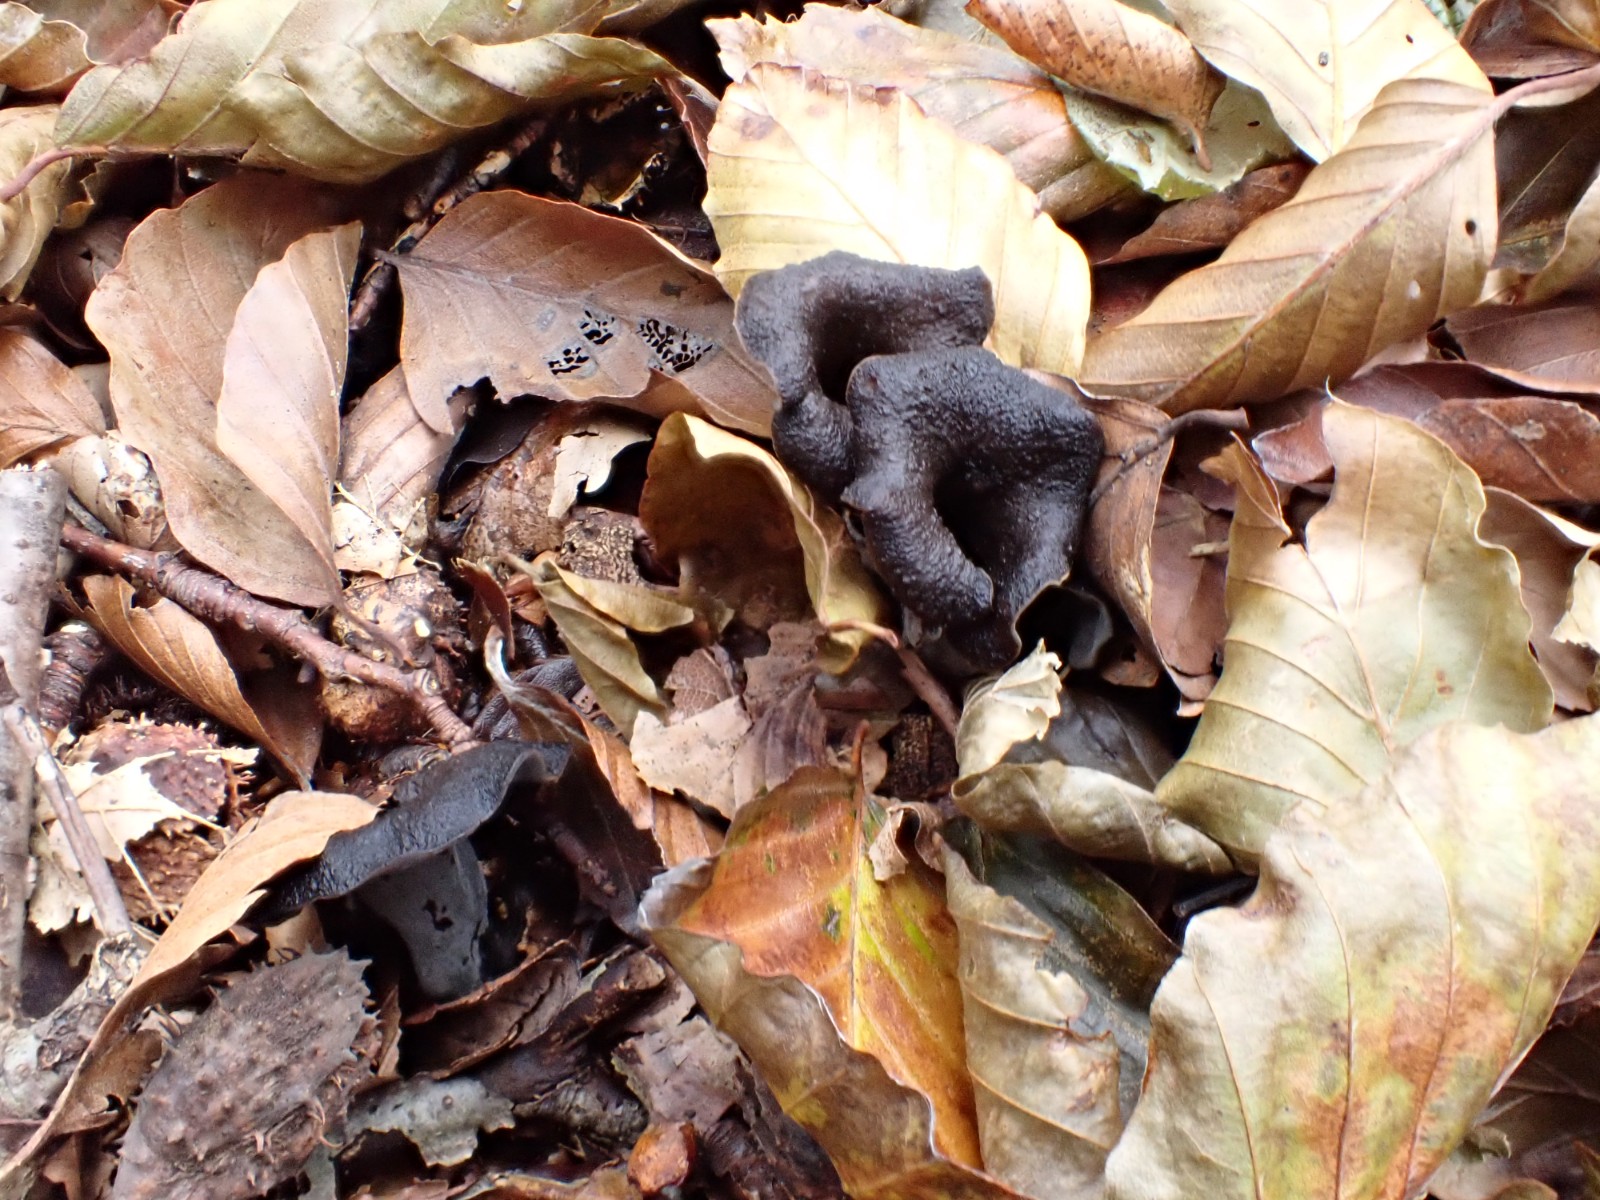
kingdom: Fungi
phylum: Basidiomycota
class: Agaricomycetes
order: Cantharellales
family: Hydnaceae
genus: Craterellus
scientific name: Craterellus cornucopioides
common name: trompetsvamp
